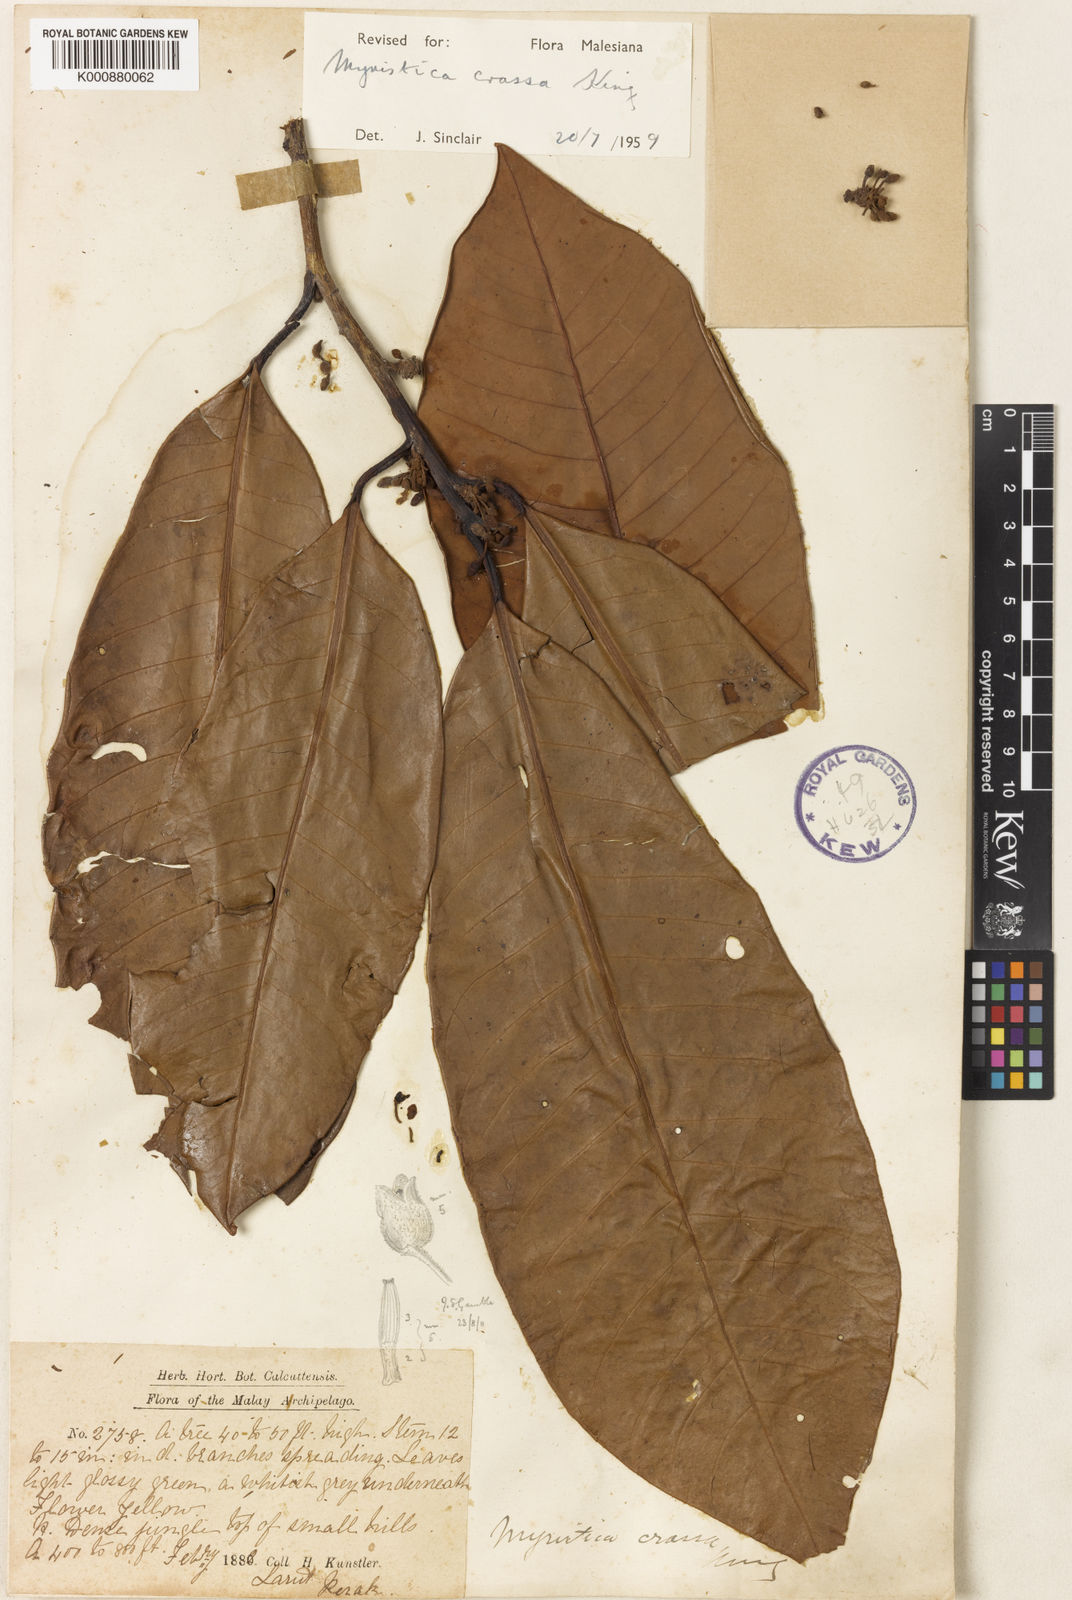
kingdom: Plantae
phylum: Tracheophyta
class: Magnoliopsida
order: Magnoliales
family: Myristicaceae
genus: Myristica
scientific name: Myristica crassa
